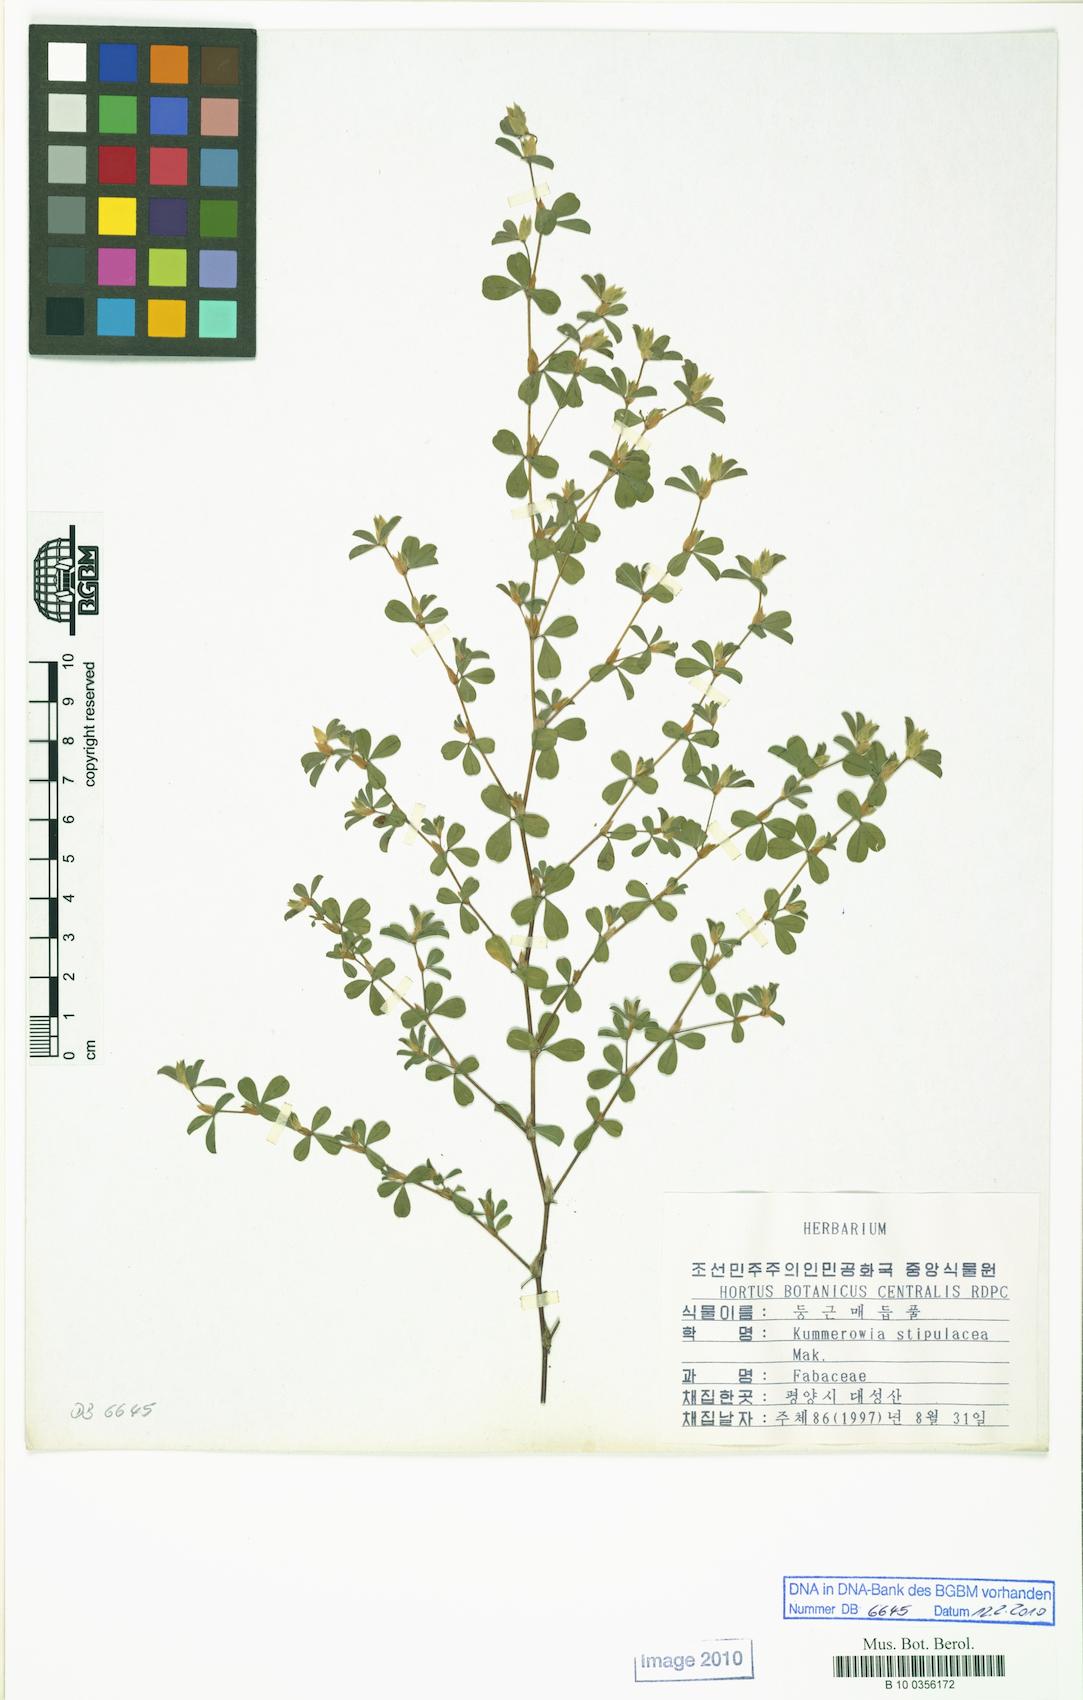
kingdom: Plantae
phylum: Tracheophyta
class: Magnoliopsida
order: Fabales
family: Fabaceae
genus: Kummerowia
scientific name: Kummerowia stipulacea
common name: Korean clover
